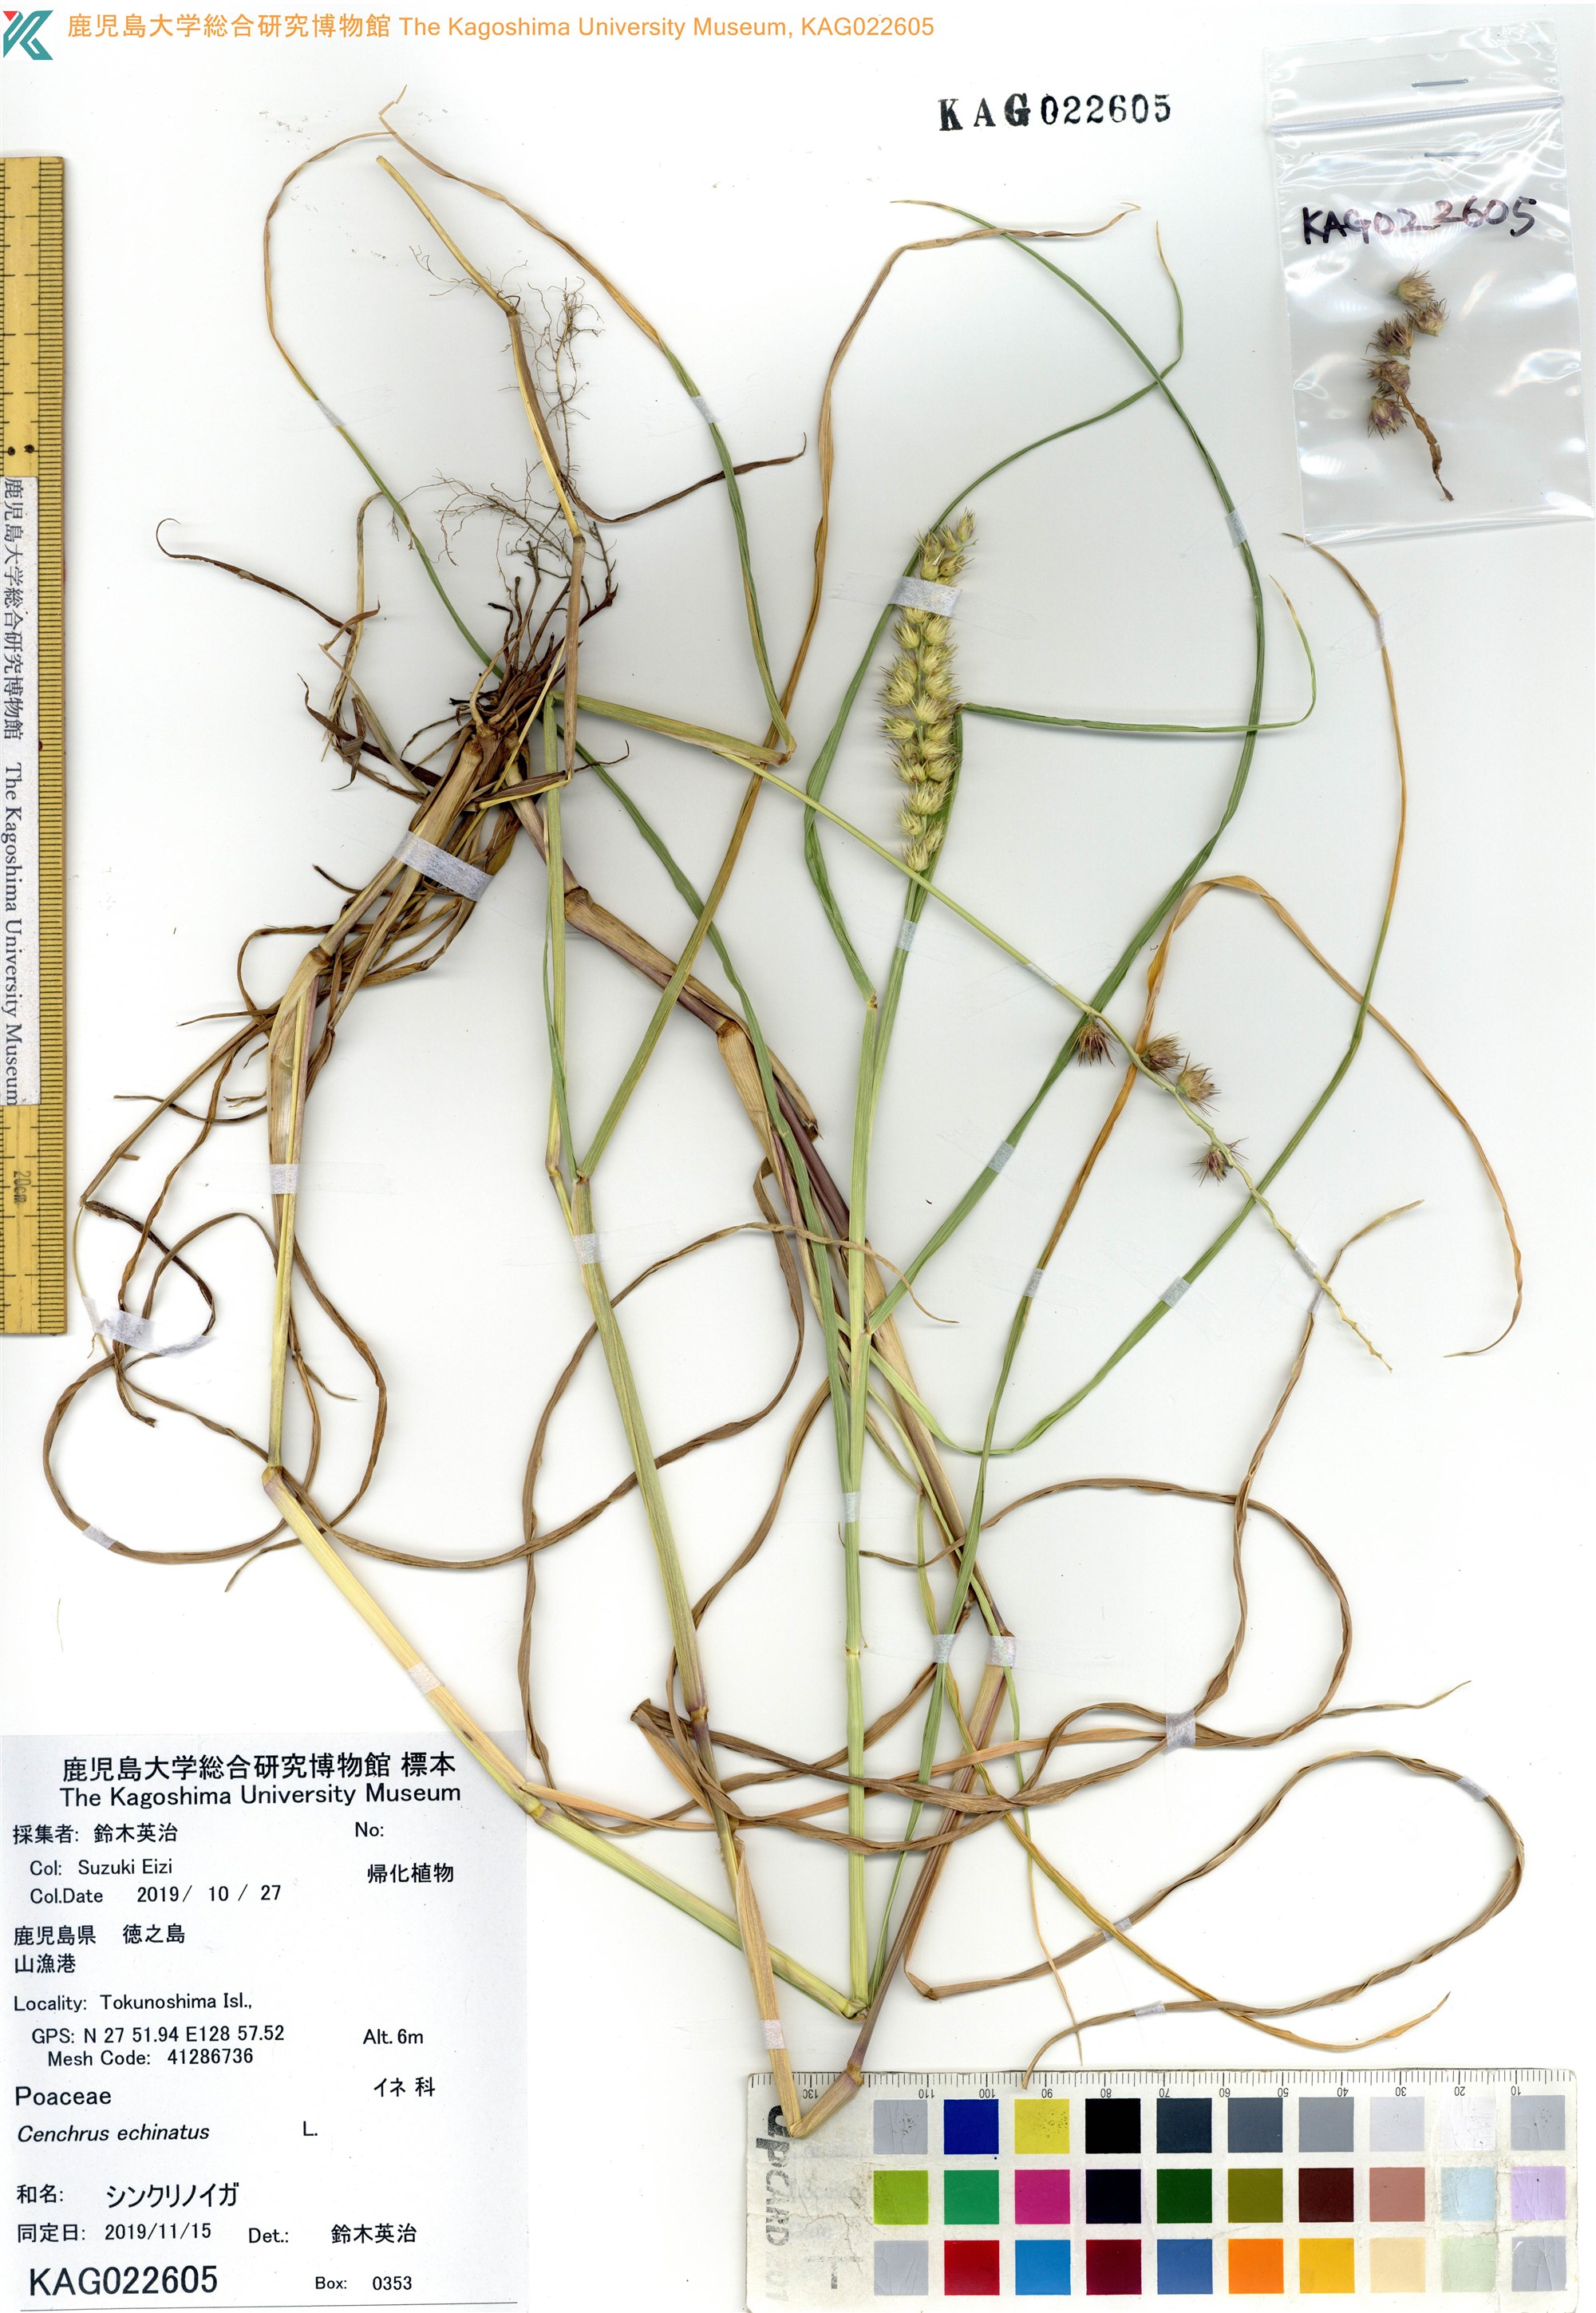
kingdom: Plantae
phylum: Tracheophyta
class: Liliopsida
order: Poales
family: Poaceae
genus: Cenchrus
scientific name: Cenchrus echinatus
